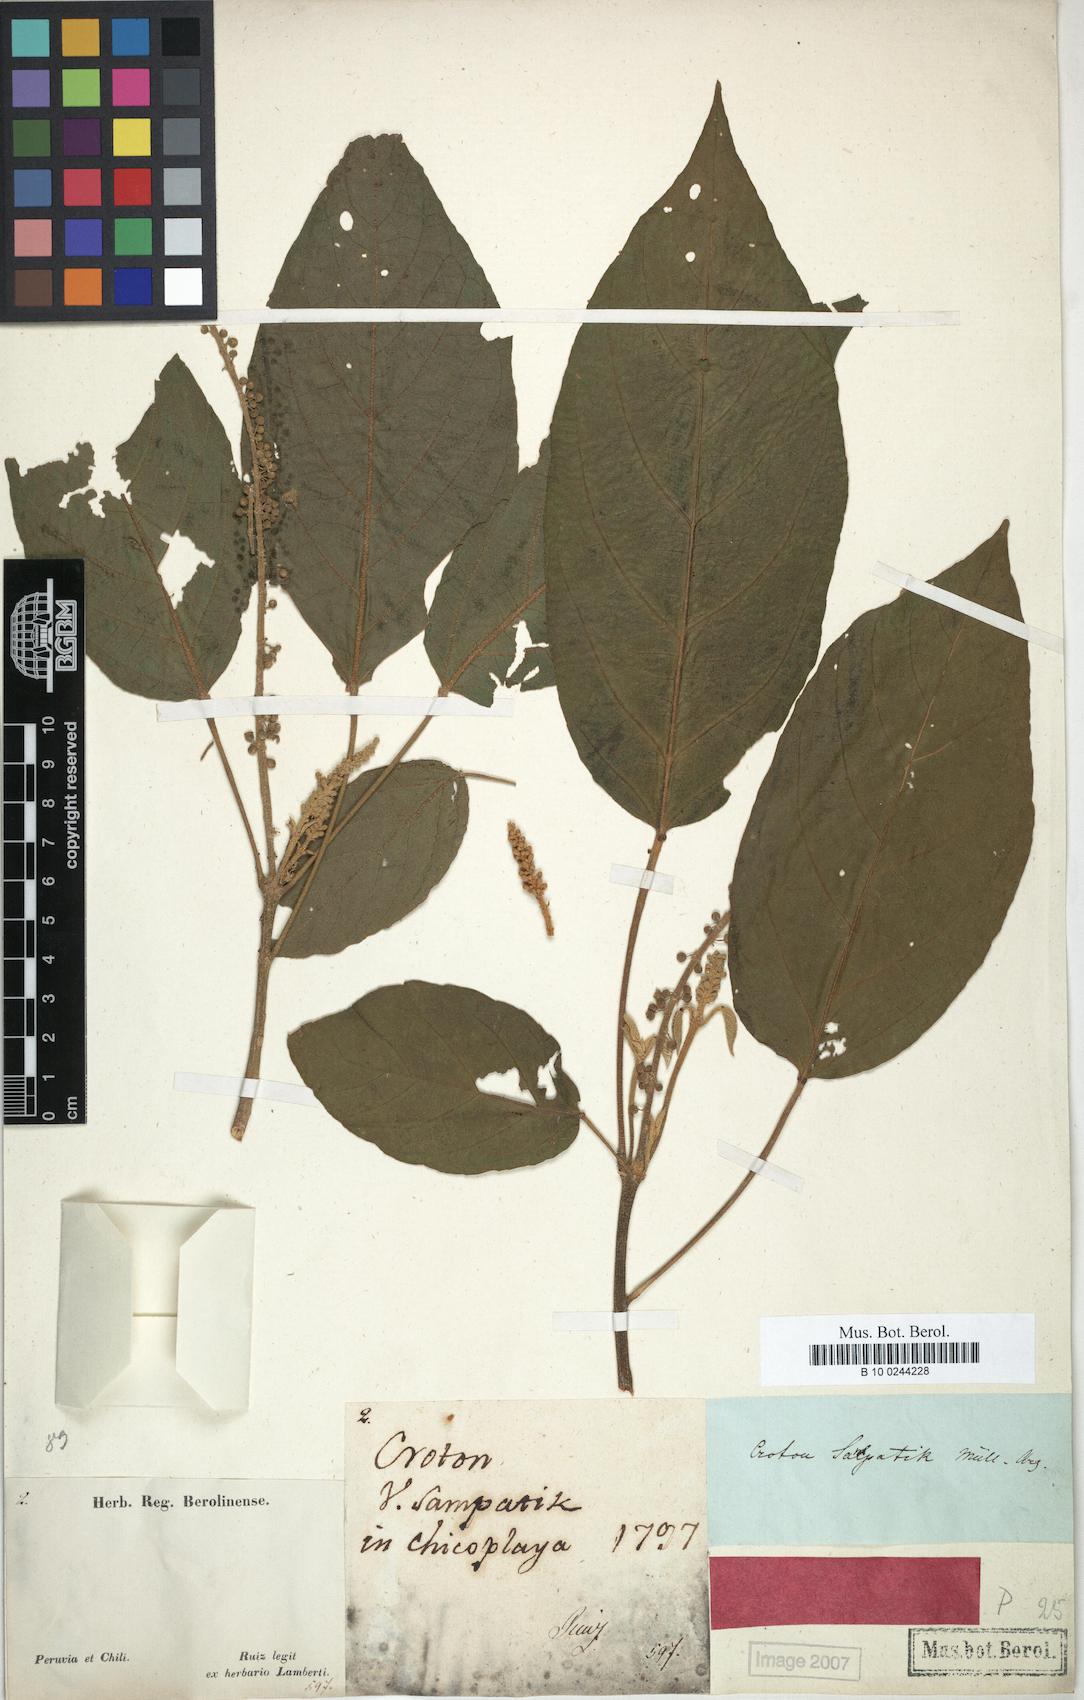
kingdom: Plantae
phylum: Tracheophyta
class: Magnoliopsida
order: Malpighiales
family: Euphorbiaceae
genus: Croton
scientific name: Croton sampatik
